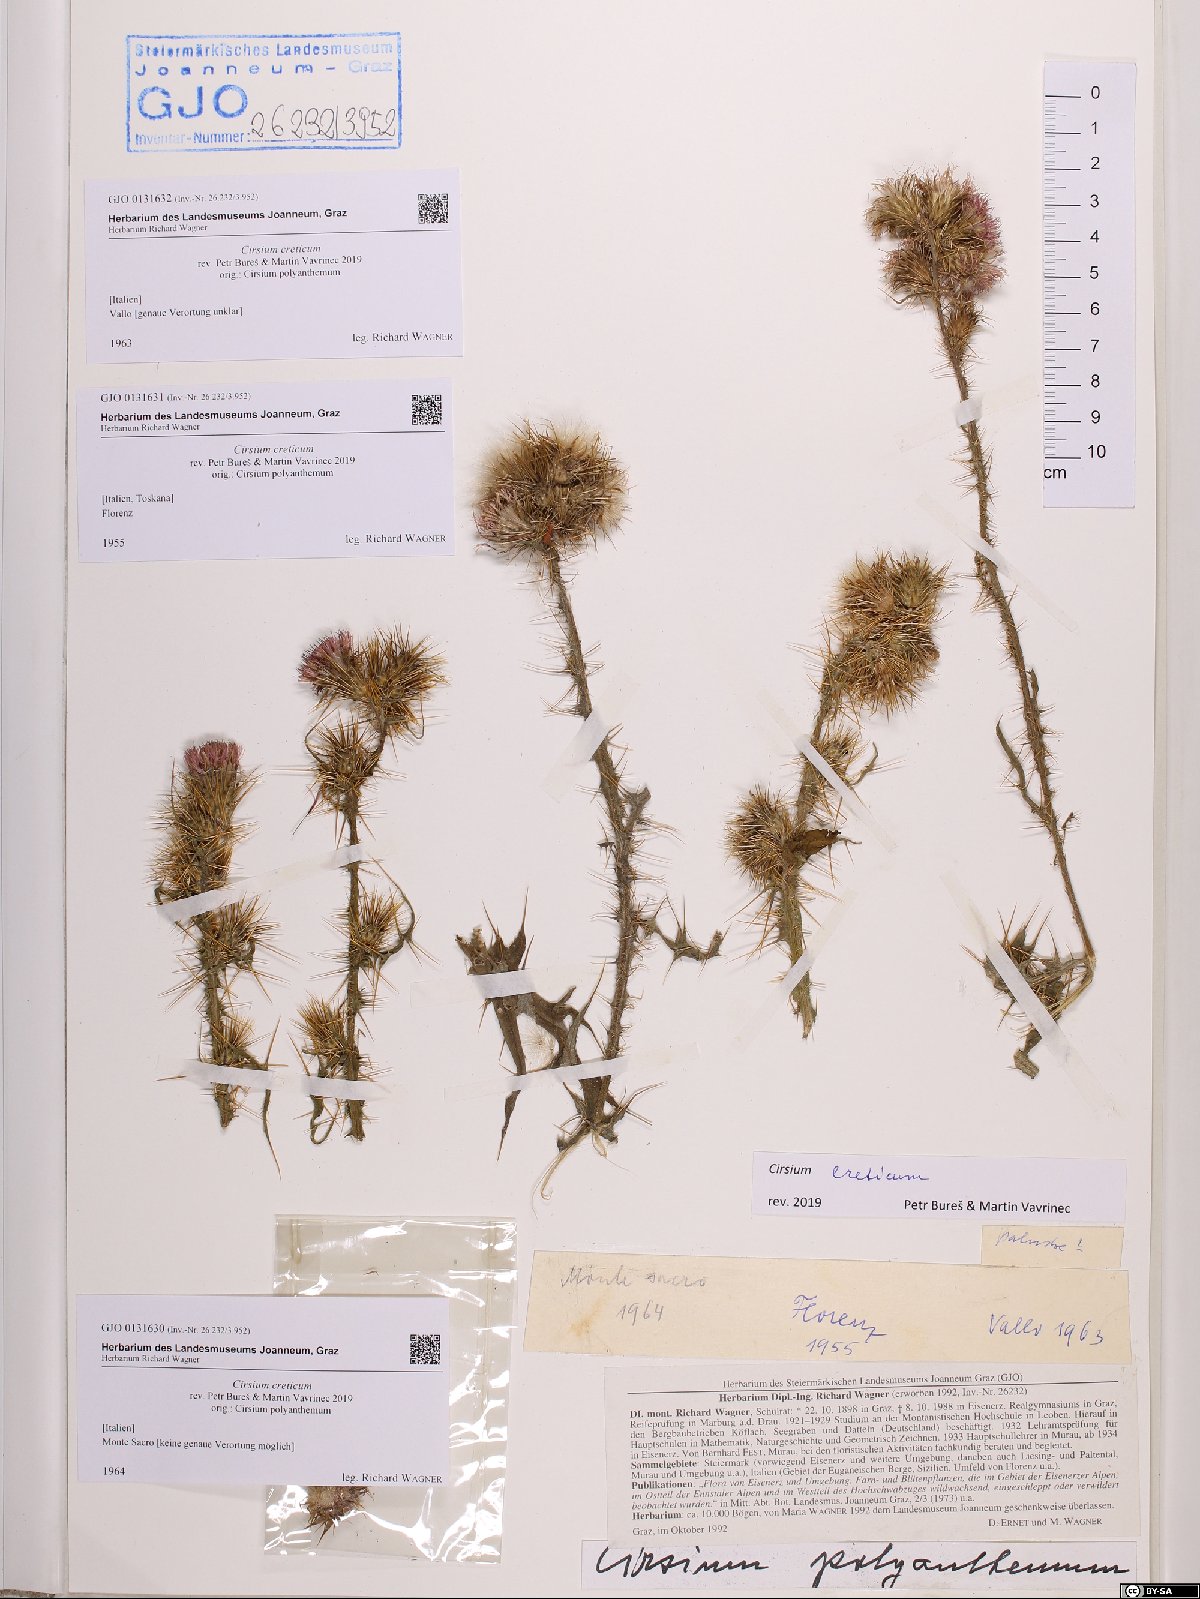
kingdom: Plantae
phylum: Tracheophyta
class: Magnoliopsida
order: Asterales
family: Asteraceae
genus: Cirsium
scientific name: Cirsium creticum
